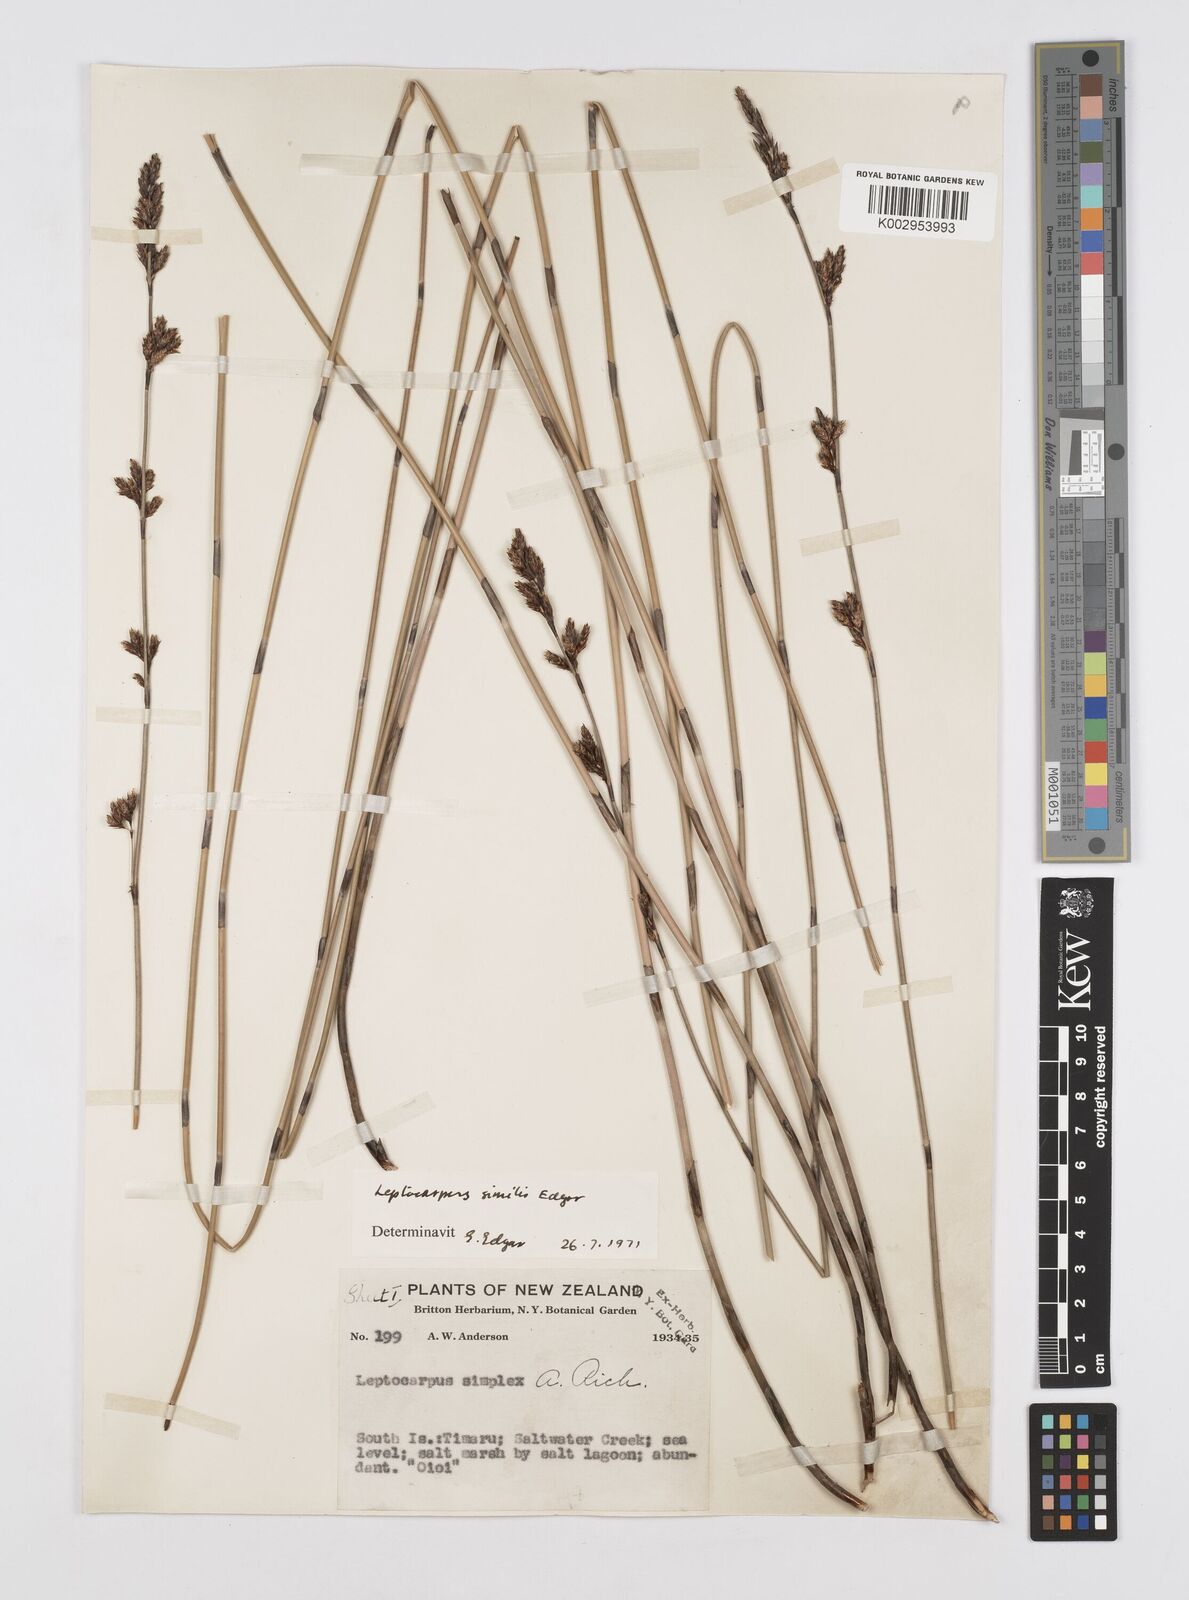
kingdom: Plantae
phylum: Tracheophyta
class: Liliopsida
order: Poales
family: Restionaceae
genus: Apodasmia
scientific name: Apodasmia similis
